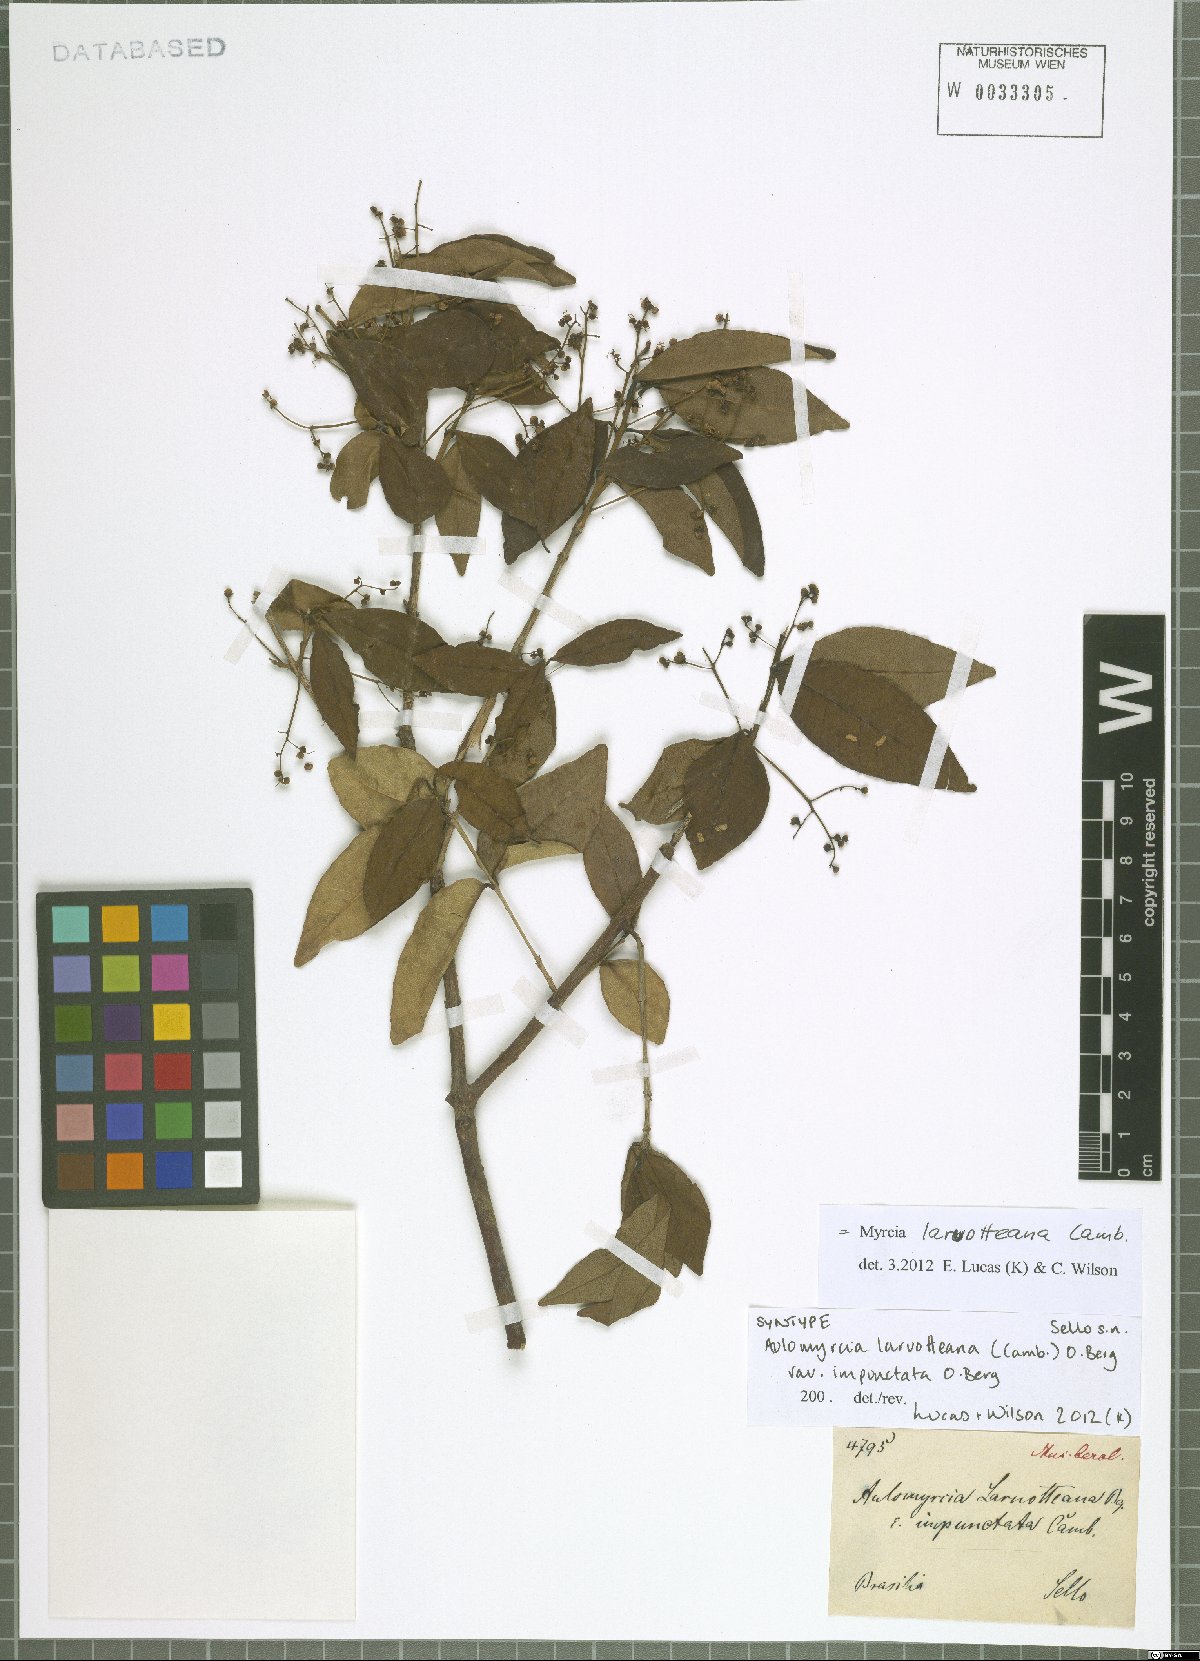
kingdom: Plantae
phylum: Tracheophyta
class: Magnoliopsida
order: Myrtales
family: Myrtaceae
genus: Myrcia
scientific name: Myrcia laruotteana
